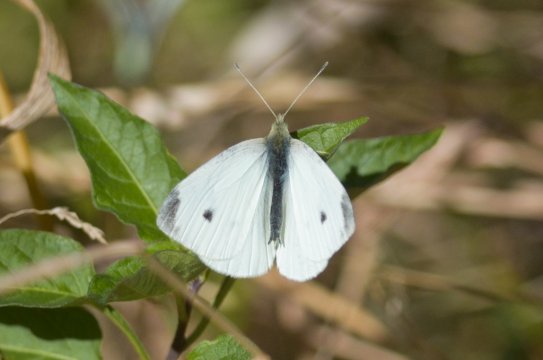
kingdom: Animalia
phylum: Arthropoda
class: Insecta
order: Lepidoptera
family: Pieridae
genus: Pieris
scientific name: Pieris rapae
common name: Cabbage White
